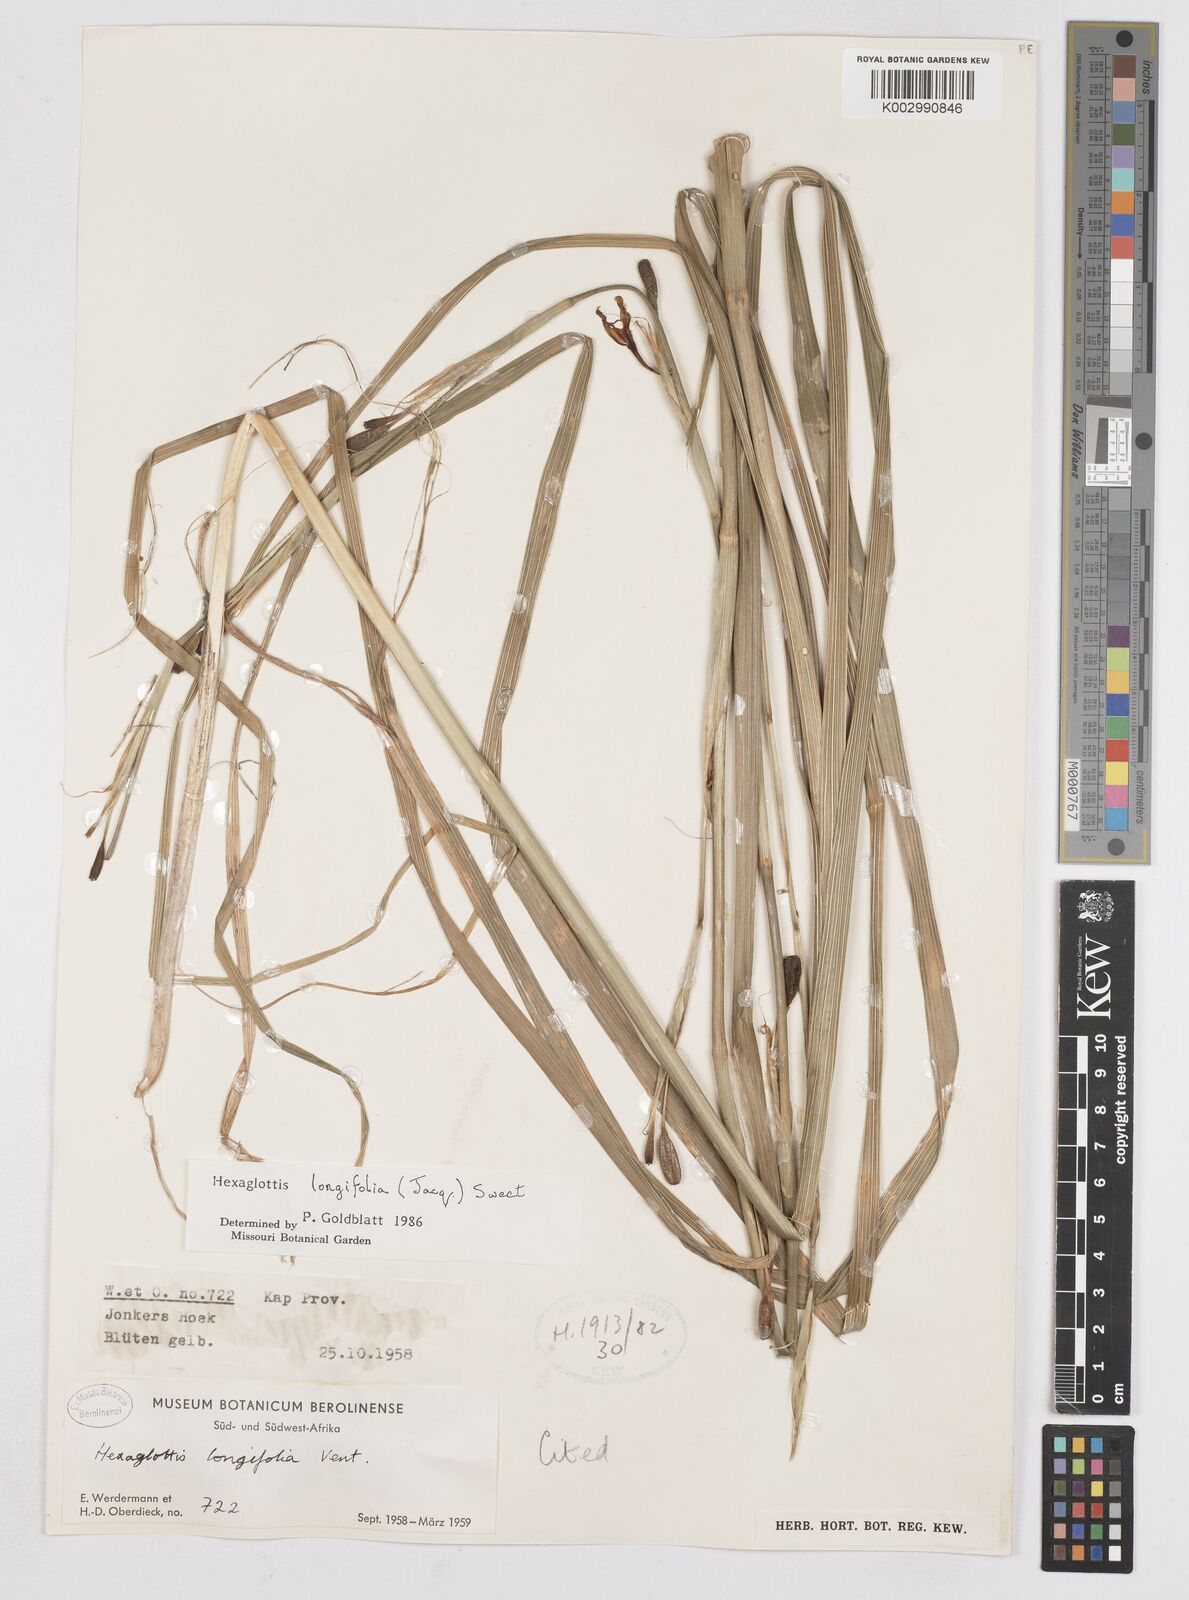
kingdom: Plantae
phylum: Tracheophyta
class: Liliopsida
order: Asparagales
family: Iridaceae
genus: Moraea
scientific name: Moraea
